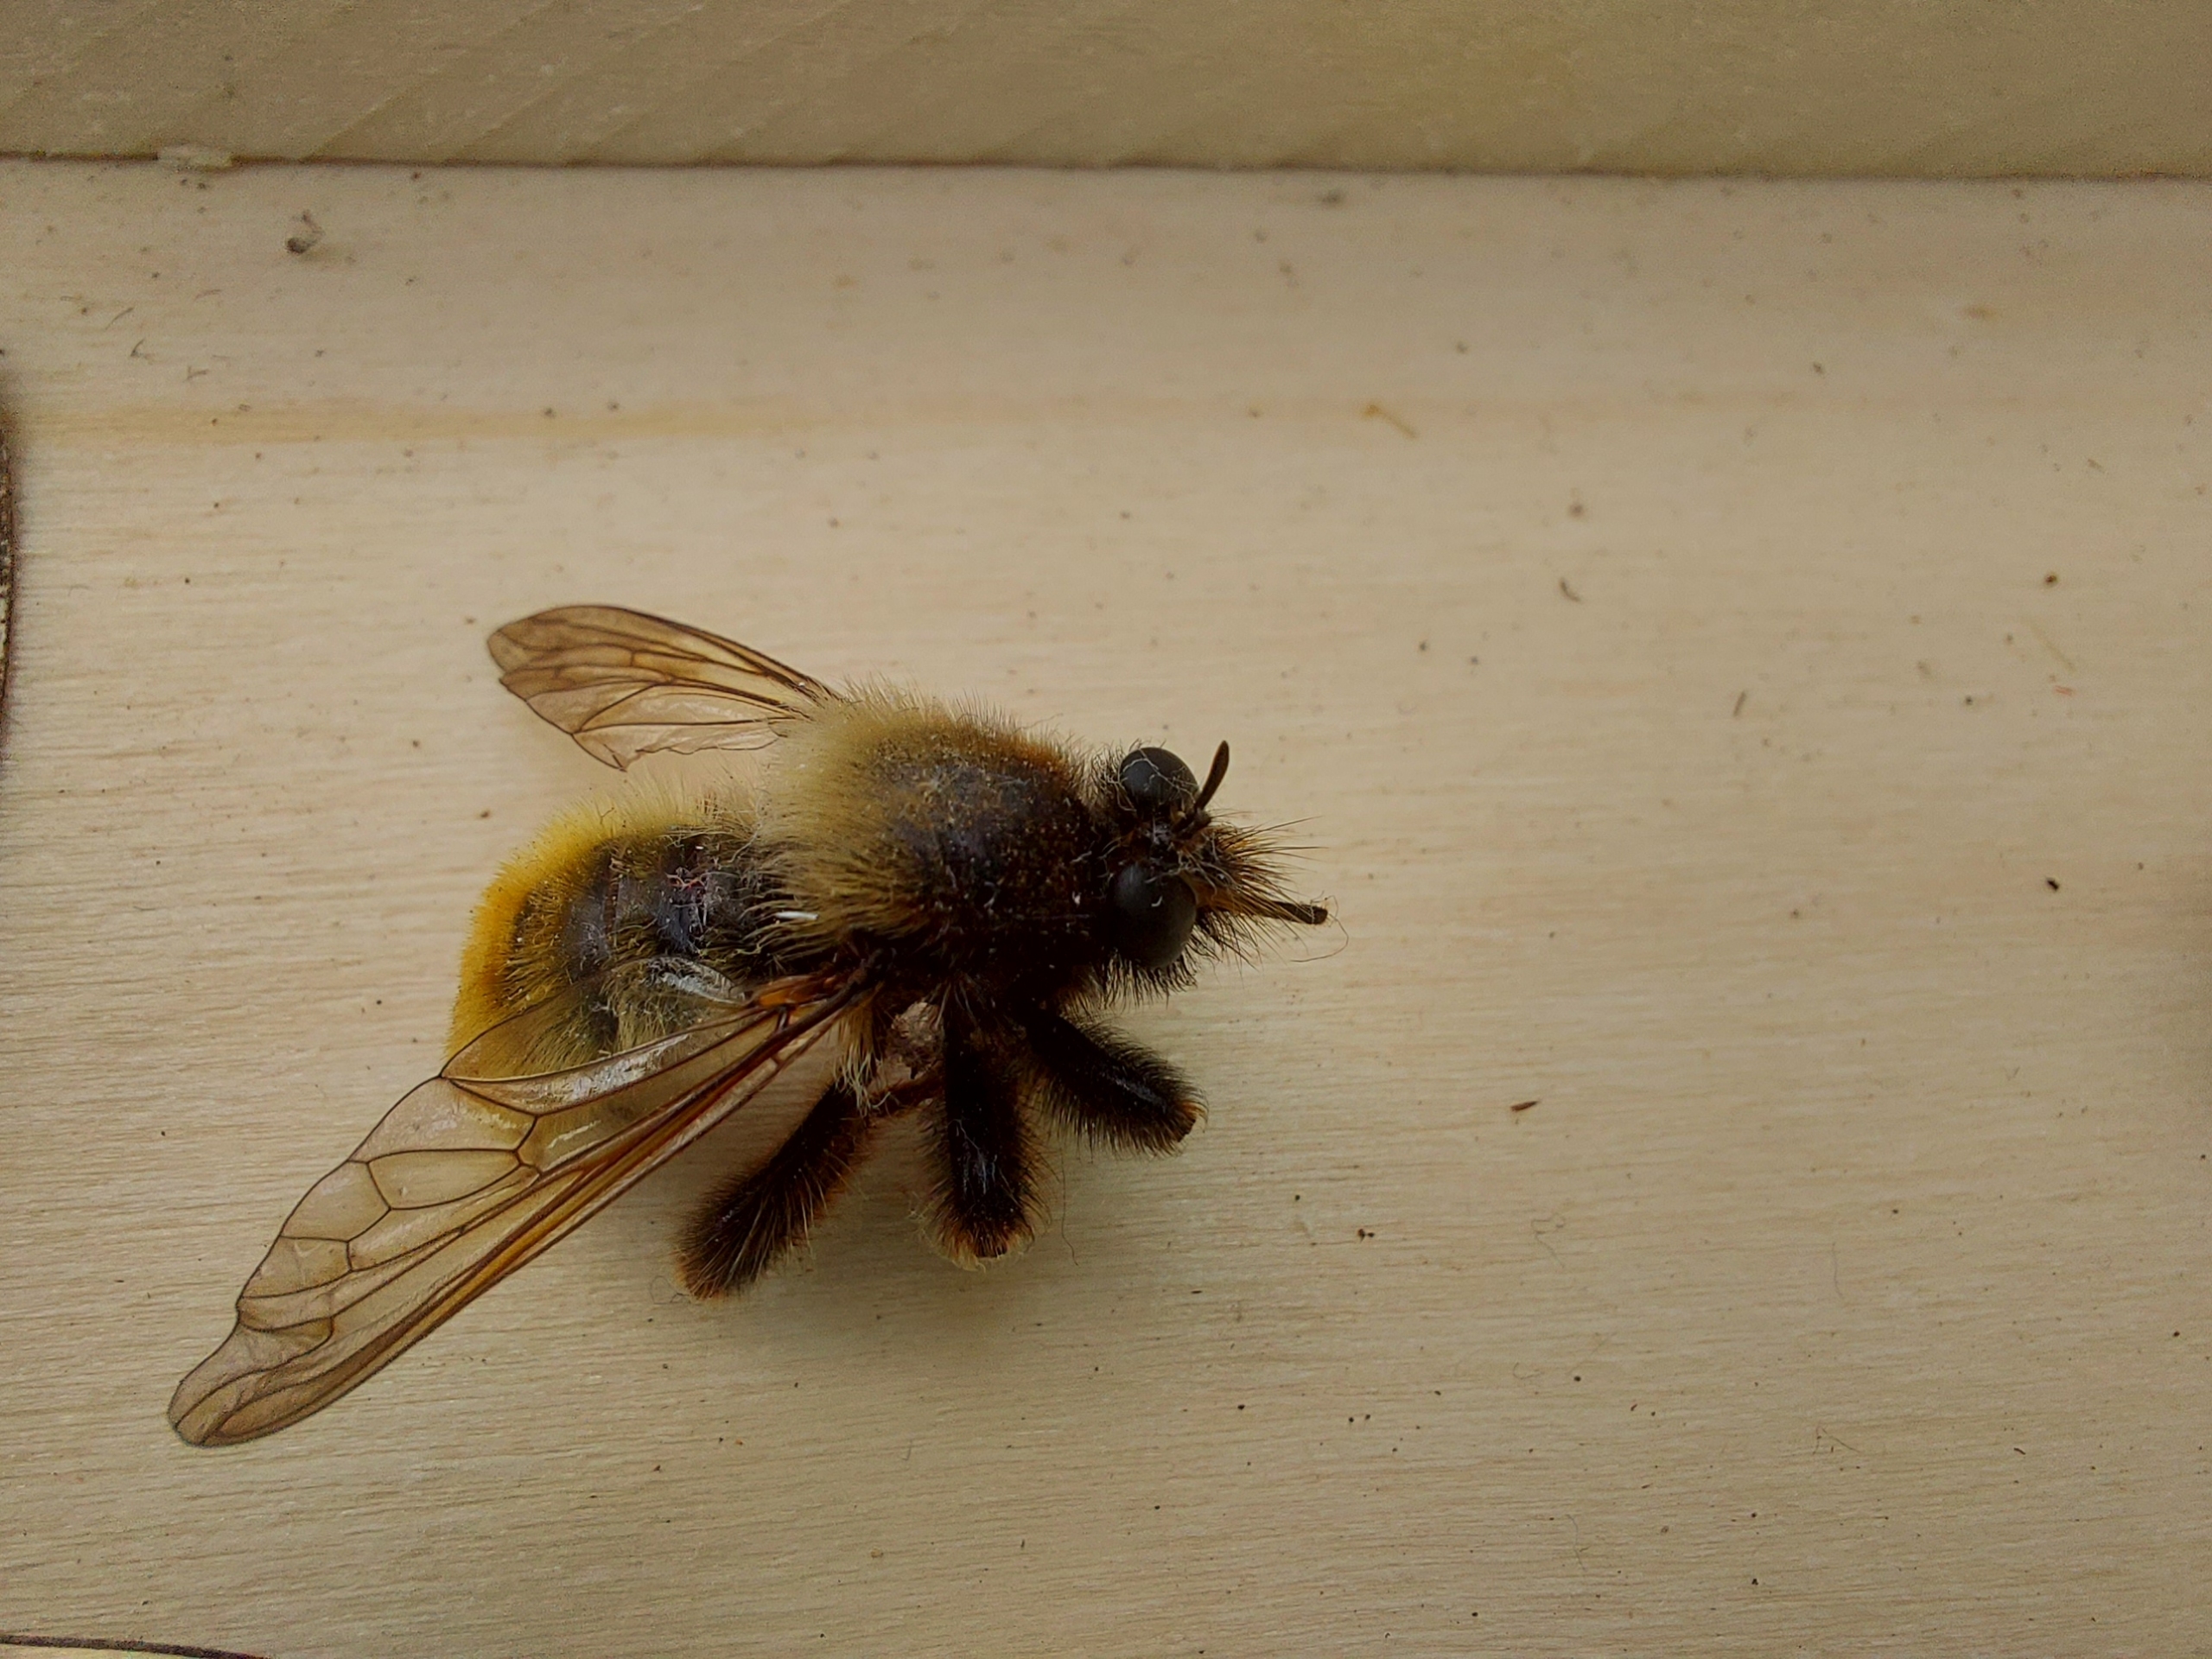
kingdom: Animalia
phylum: Arthropoda
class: Insecta
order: Diptera
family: Asilidae
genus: Laphria
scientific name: Laphria flava
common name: Gul vedrovflue
